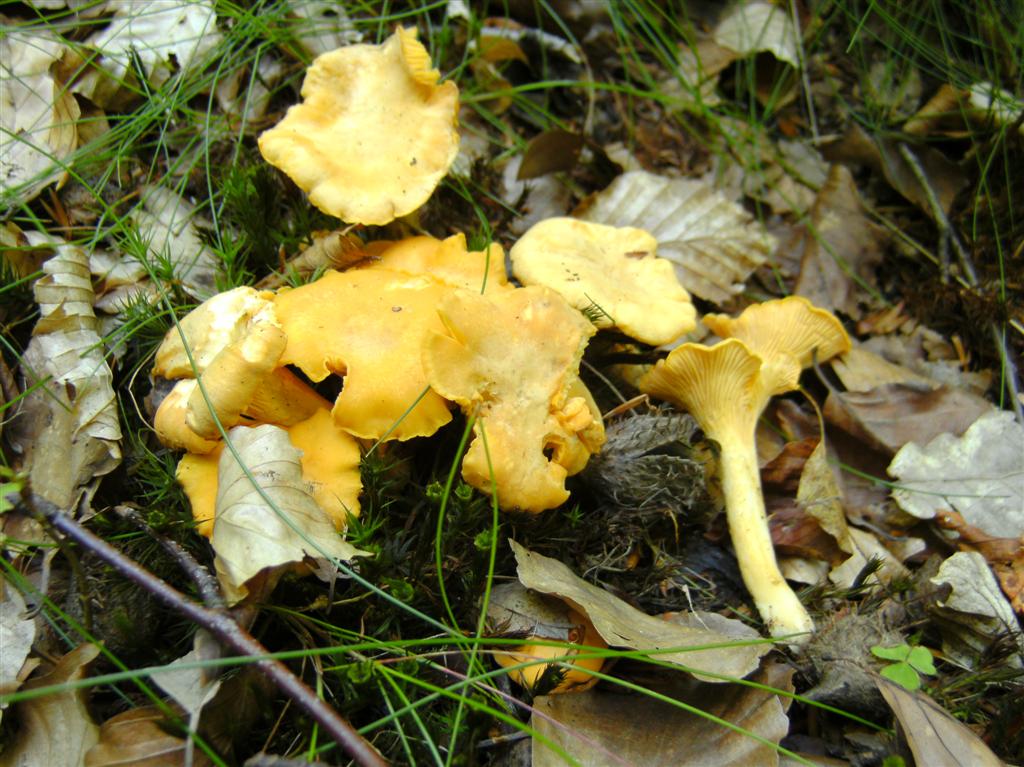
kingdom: Fungi
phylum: Basidiomycota
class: Agaricomycetes
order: Cantharellales
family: Hydnaceae
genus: Cantharellus
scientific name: Cantharellus cibarius
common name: almindelig kantarel
